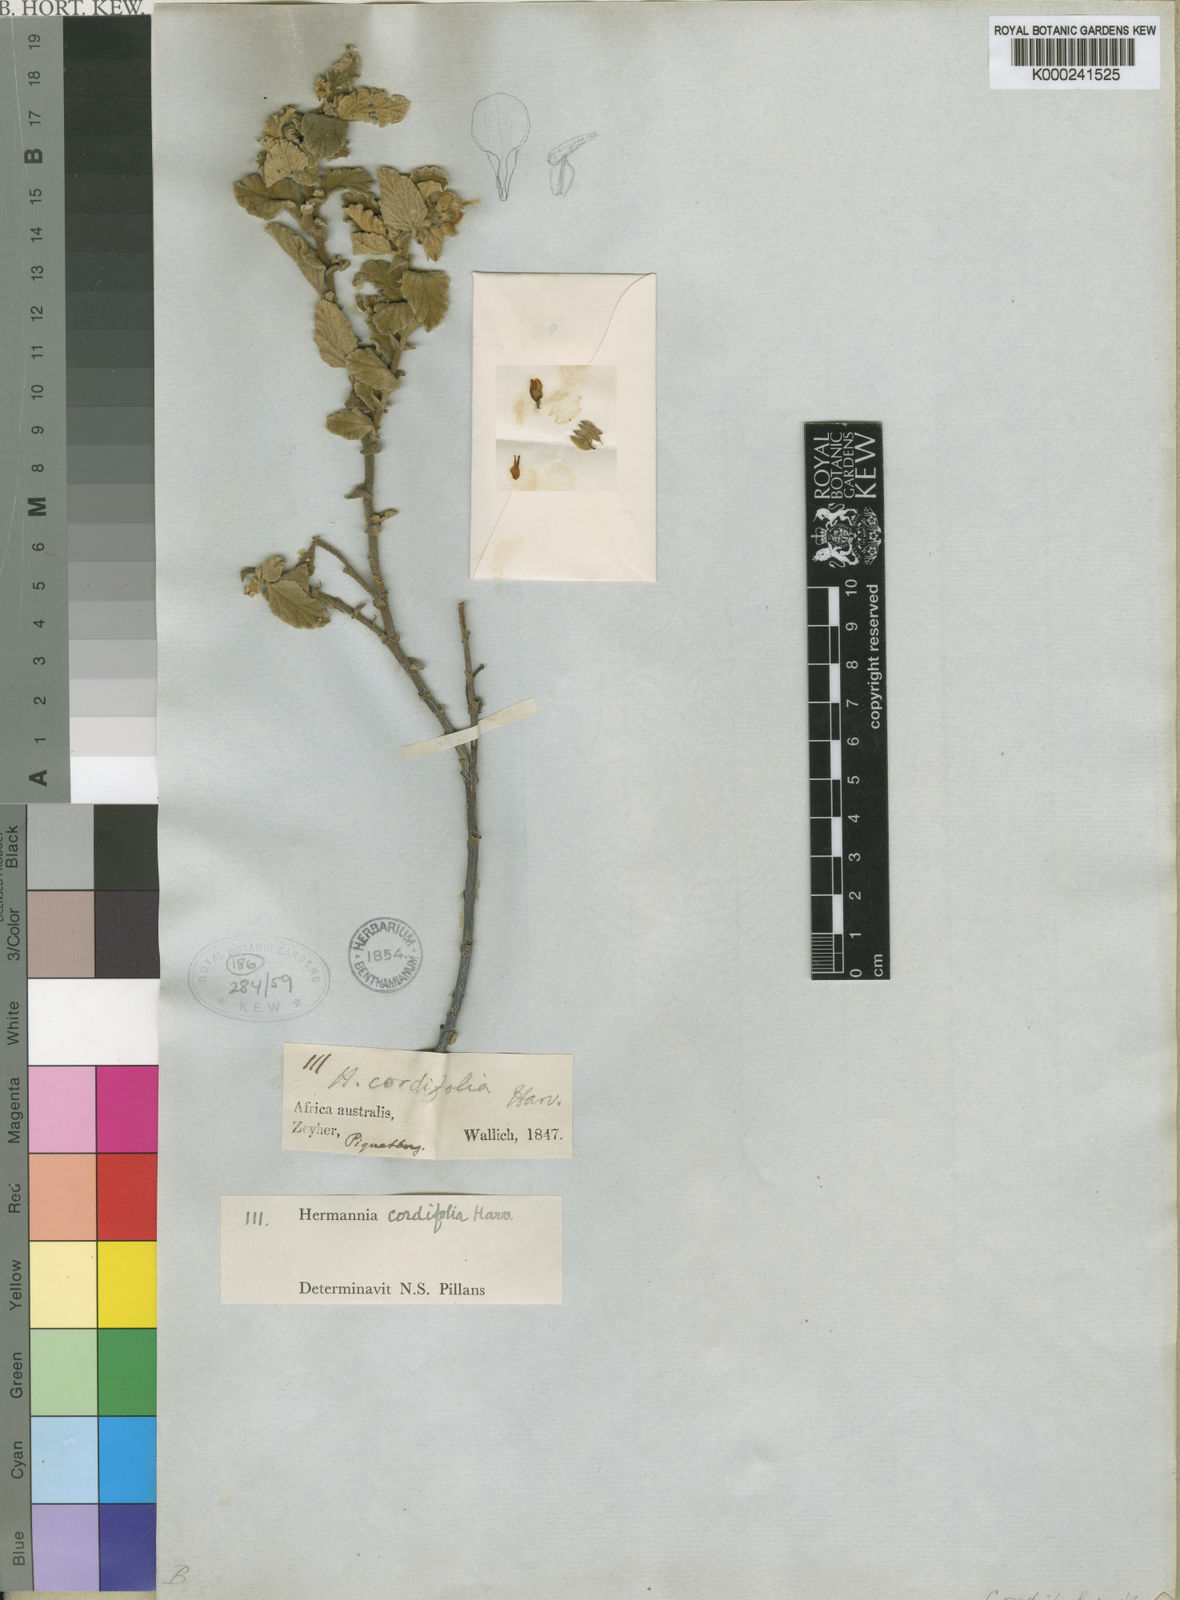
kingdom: Plantae
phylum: Tracheophyta
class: Magnoliopsida
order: Malvales
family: Malvaceae
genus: Hermannia
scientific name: Hermannia cordifolia
